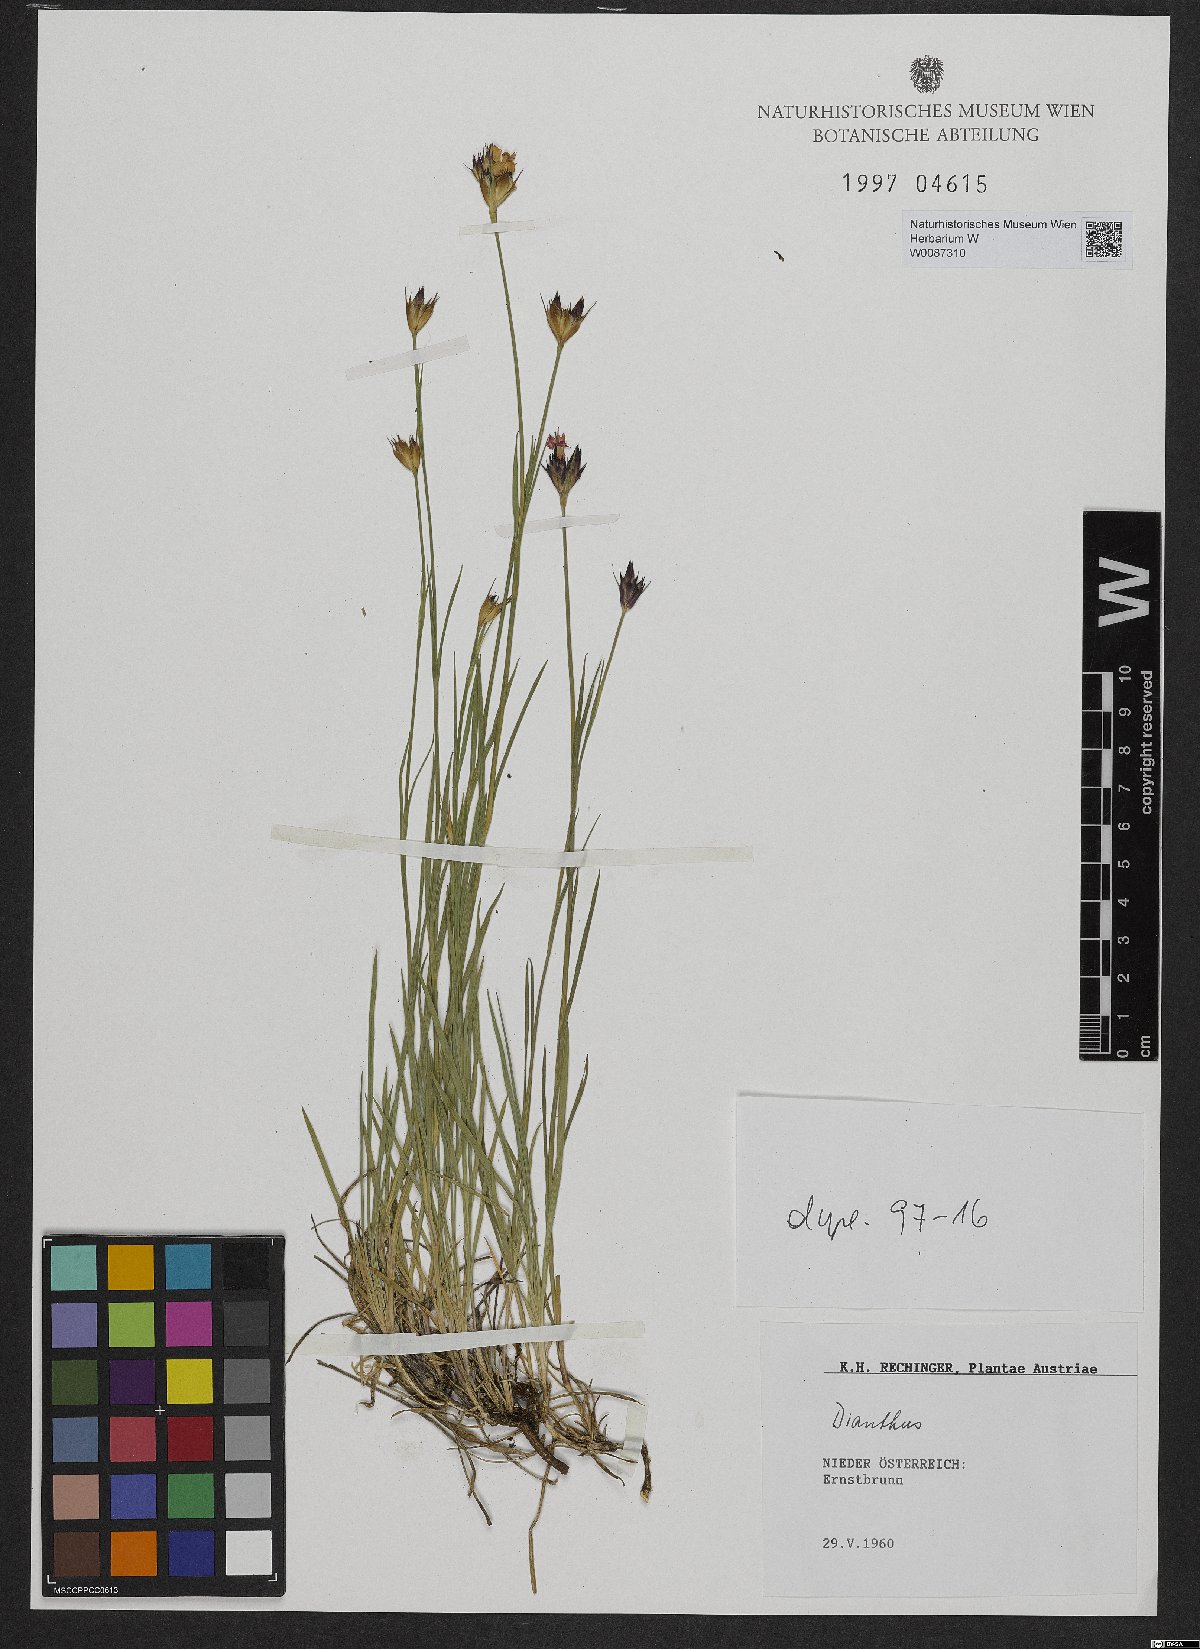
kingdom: Plantae
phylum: Tracheophyta
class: Magnoliopsida
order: Caryophyllales
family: Caryophyllaceae
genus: Dianthus
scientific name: Dianthus pontederae
